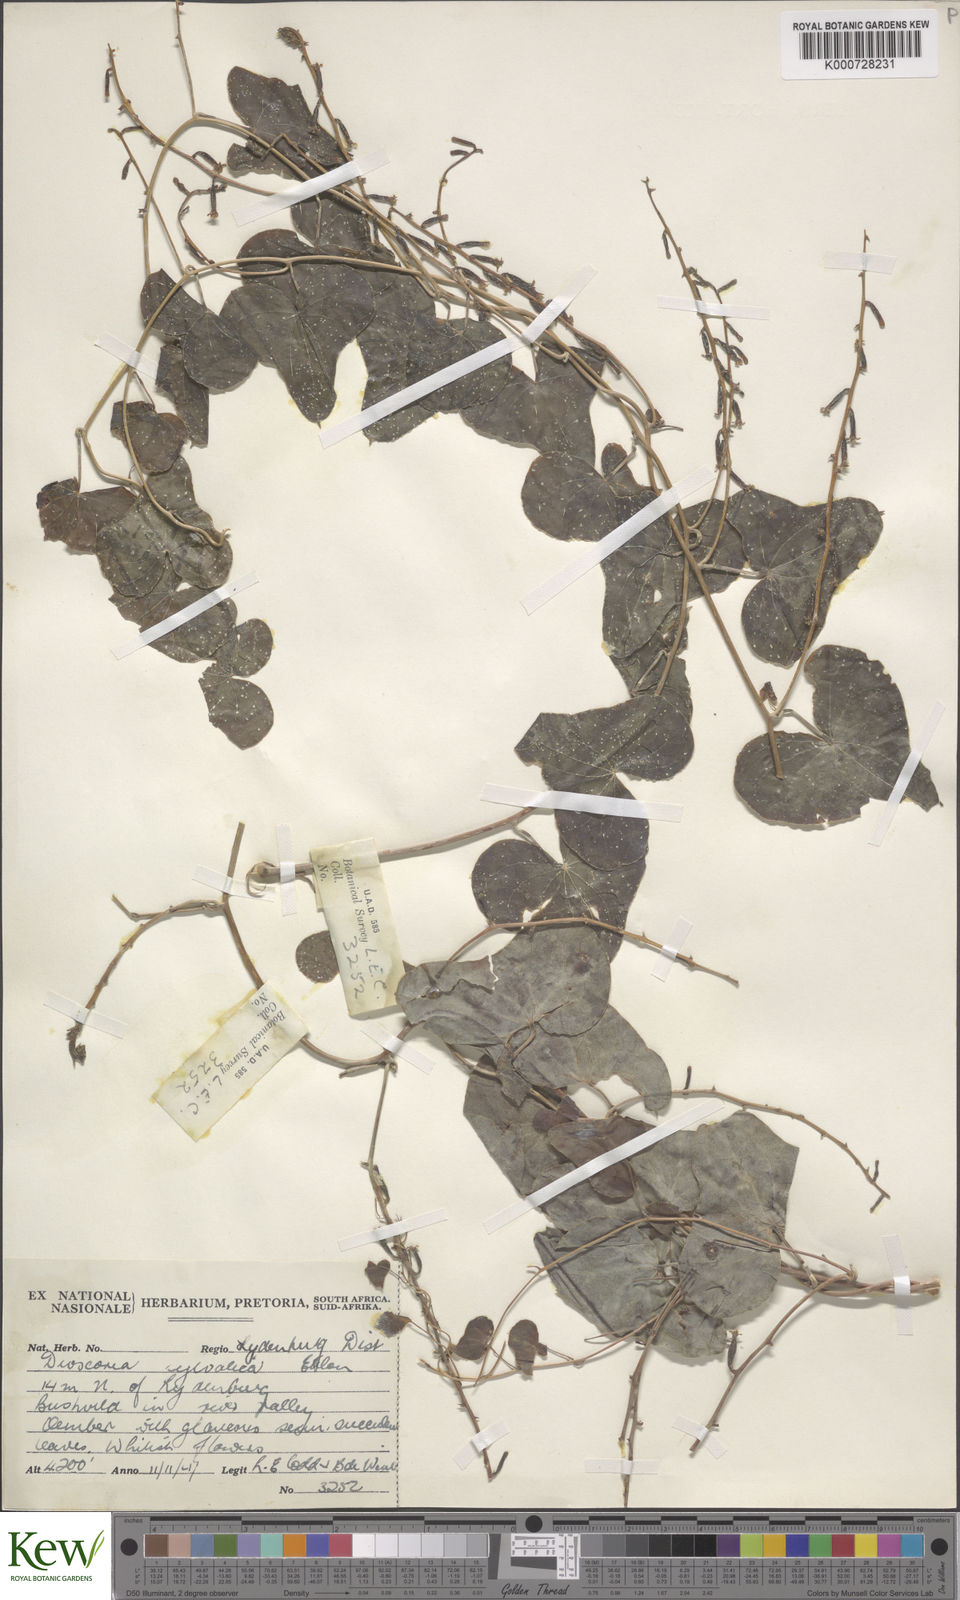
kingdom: Plantae
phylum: Tracheophyta
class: Liliopsida
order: Dioscoreales
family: Dioscoreaceae
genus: Dioscorea
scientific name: Dioscorea sylvatica
